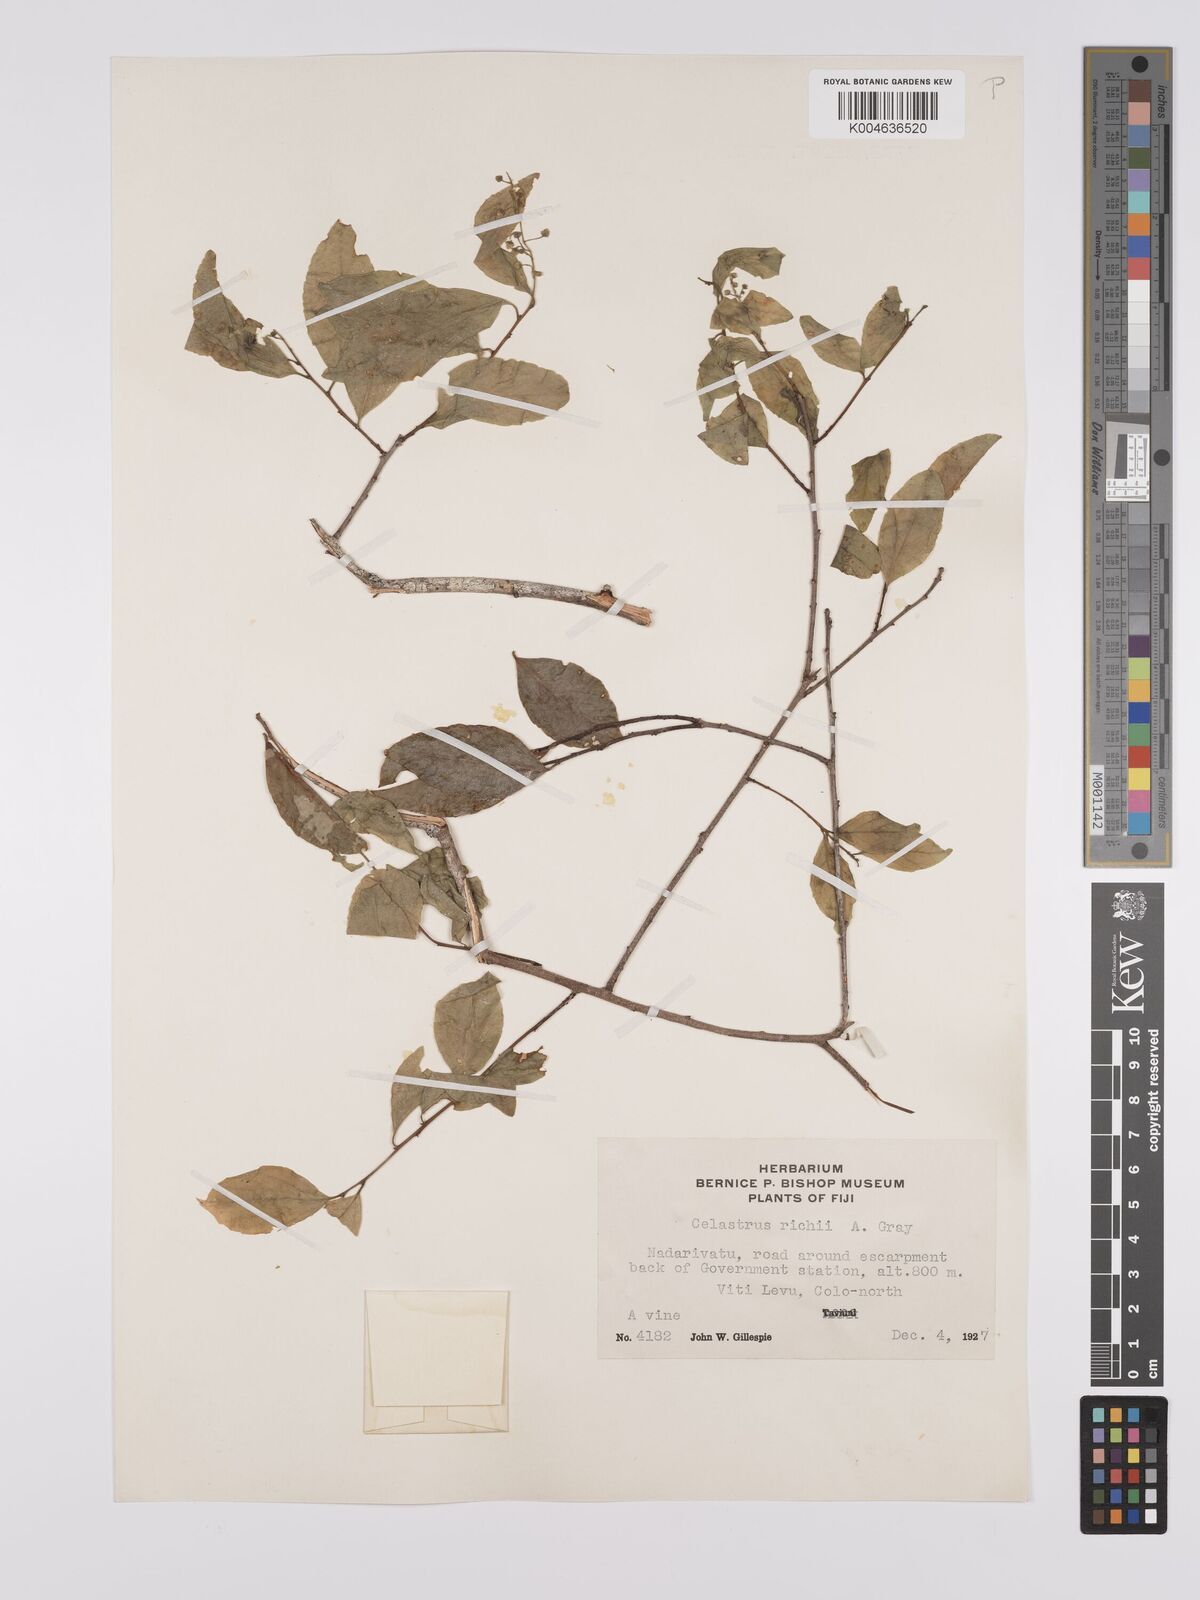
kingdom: Plantae
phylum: Tracheophyta
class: Magnoliopsida
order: Celastrales
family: Celastraceae
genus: Celastrus
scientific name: Celastrus richii
